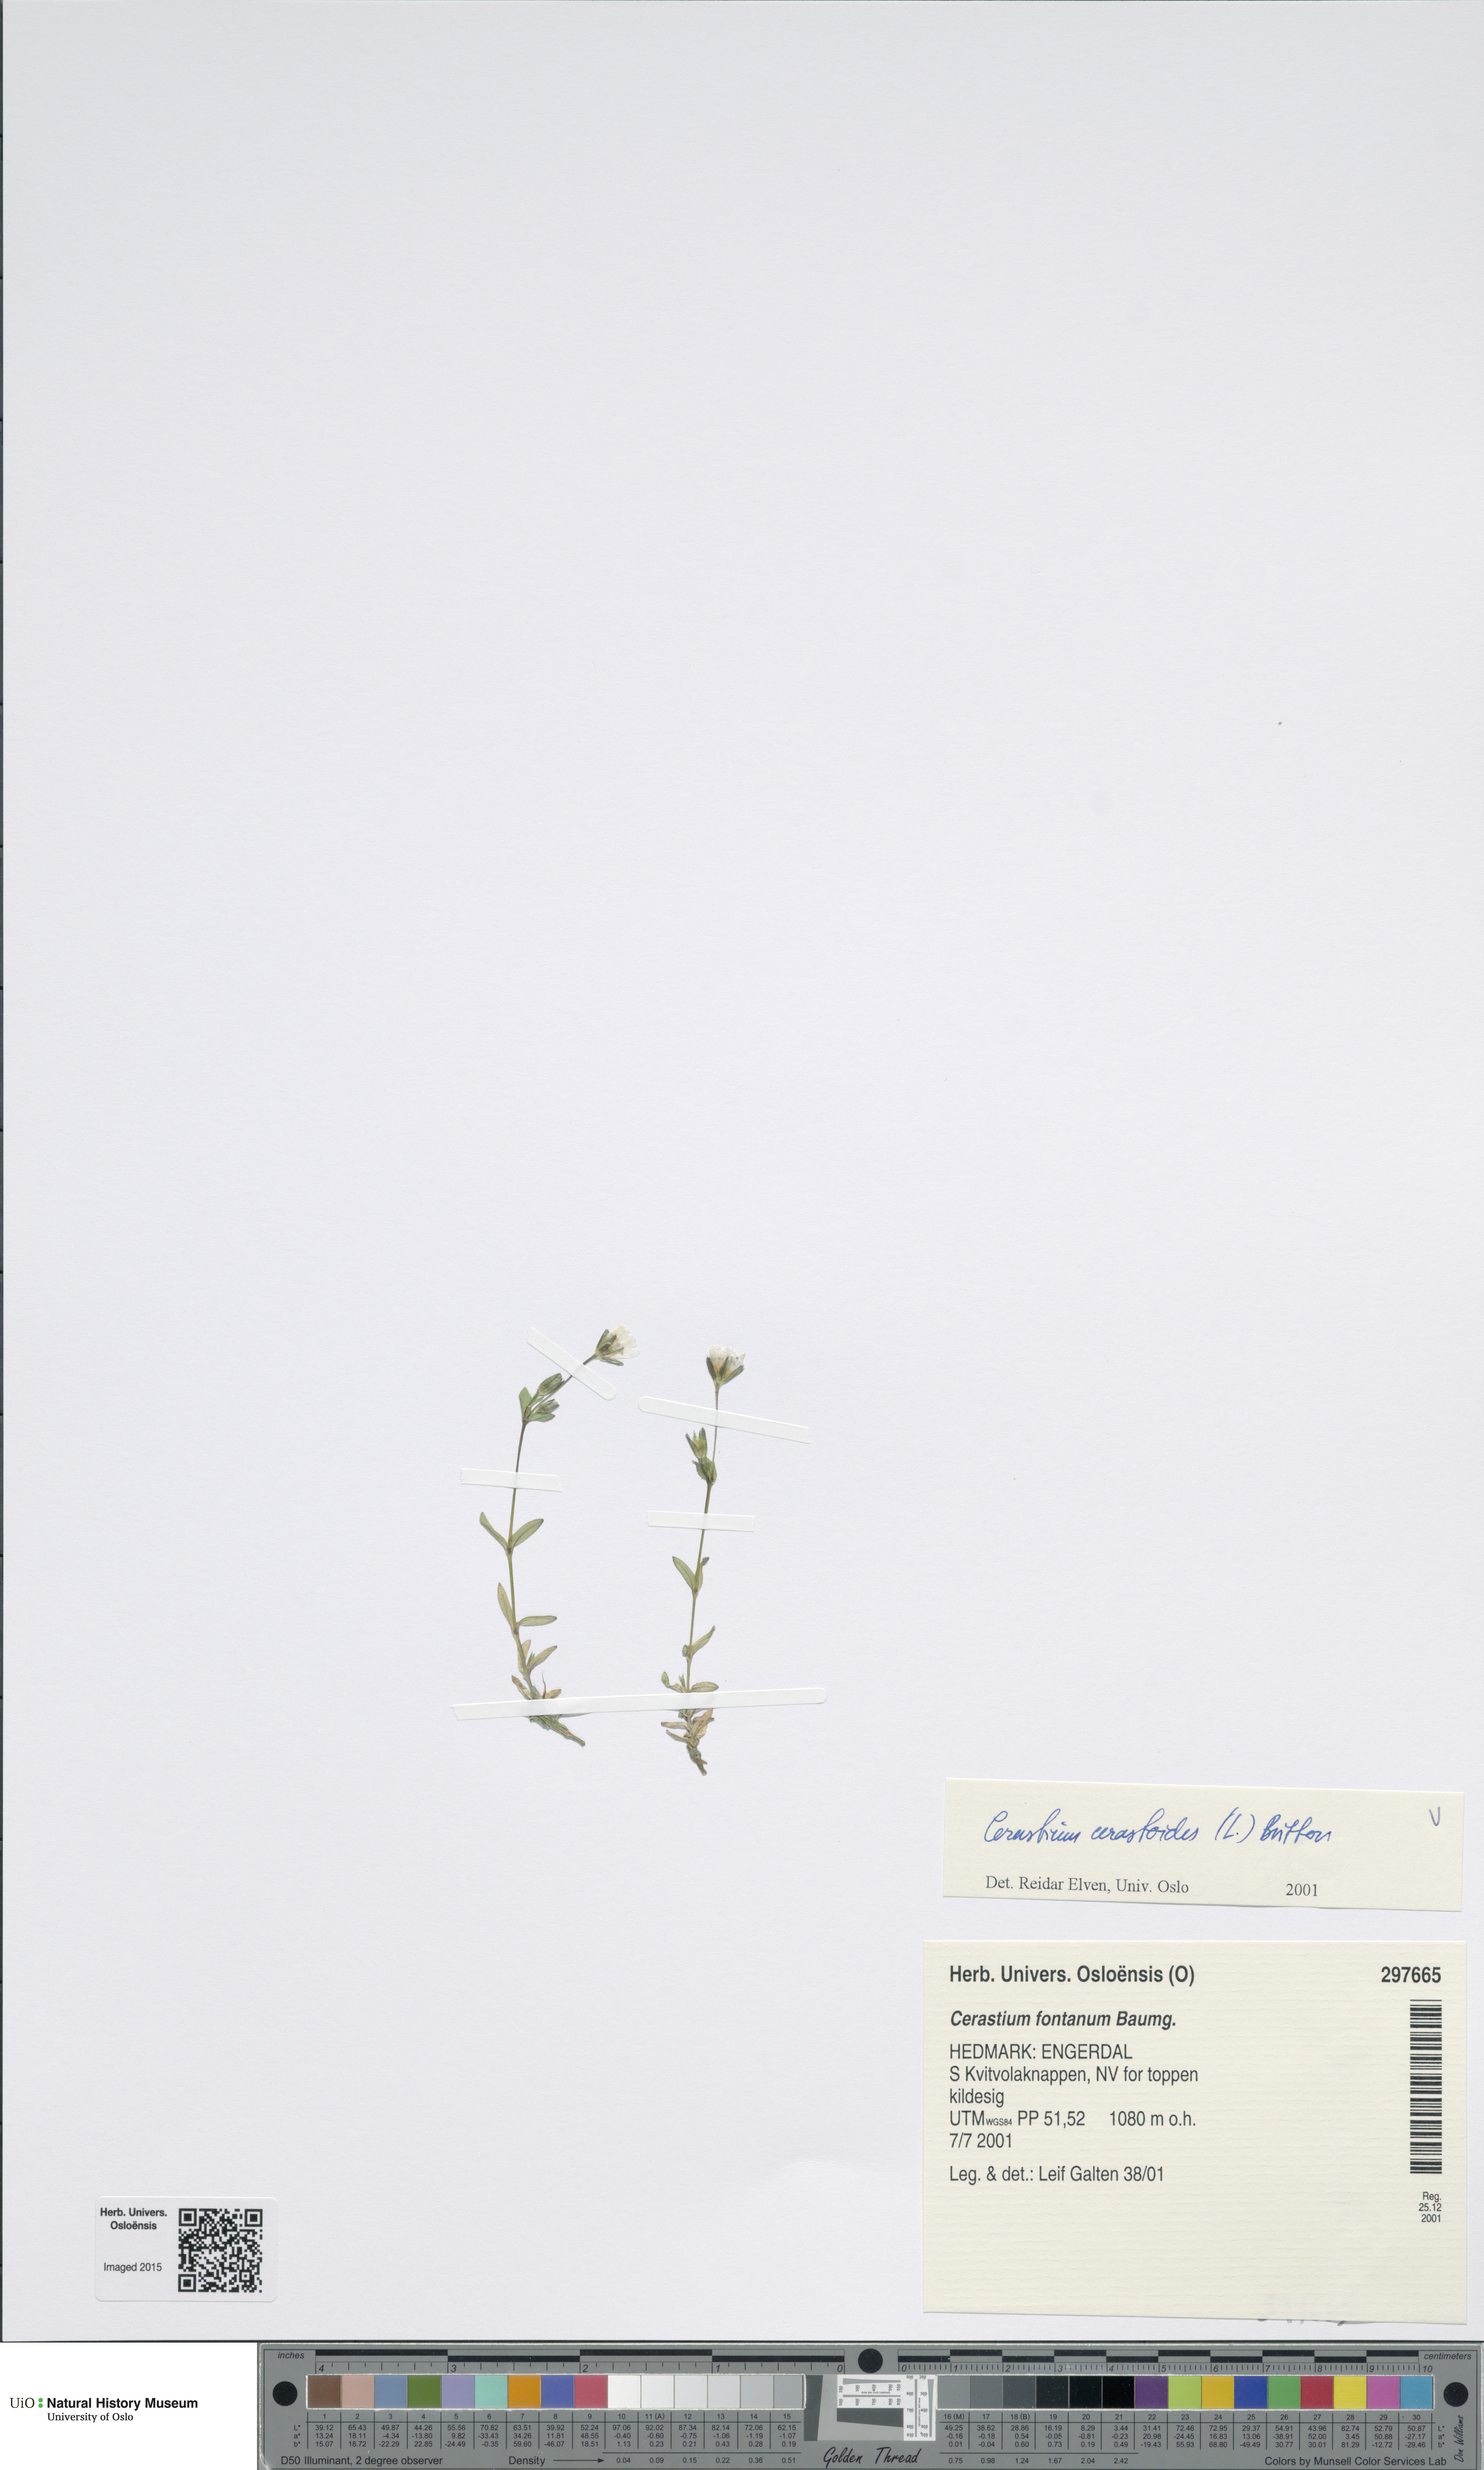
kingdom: Plantae
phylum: Tracheophyta
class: Magnoliopsida
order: Caryophyllales
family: Caryophyllaceae
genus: Dichodon
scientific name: Dichodon cerastoides
